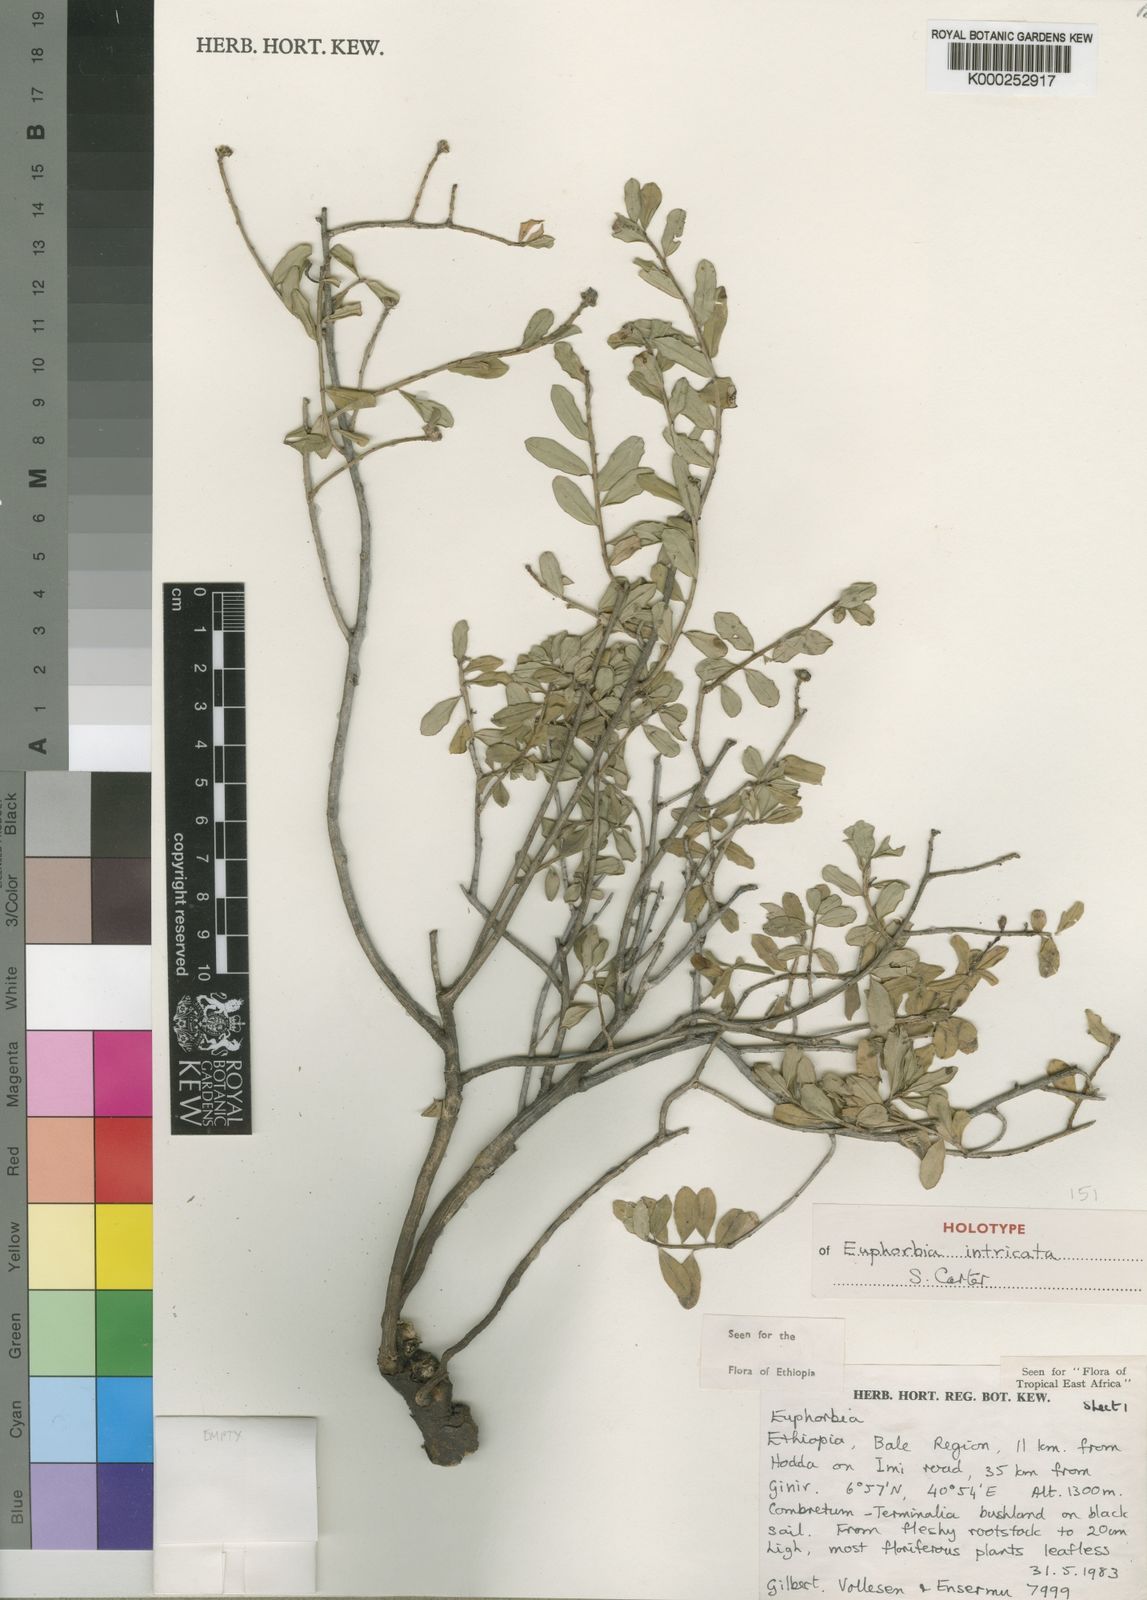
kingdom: Plantae
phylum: Tracheophyta
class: Magnoliopsida
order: Malpighiales
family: Euphorbiaceae
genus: Euphorbia
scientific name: Euphorbia intricata
